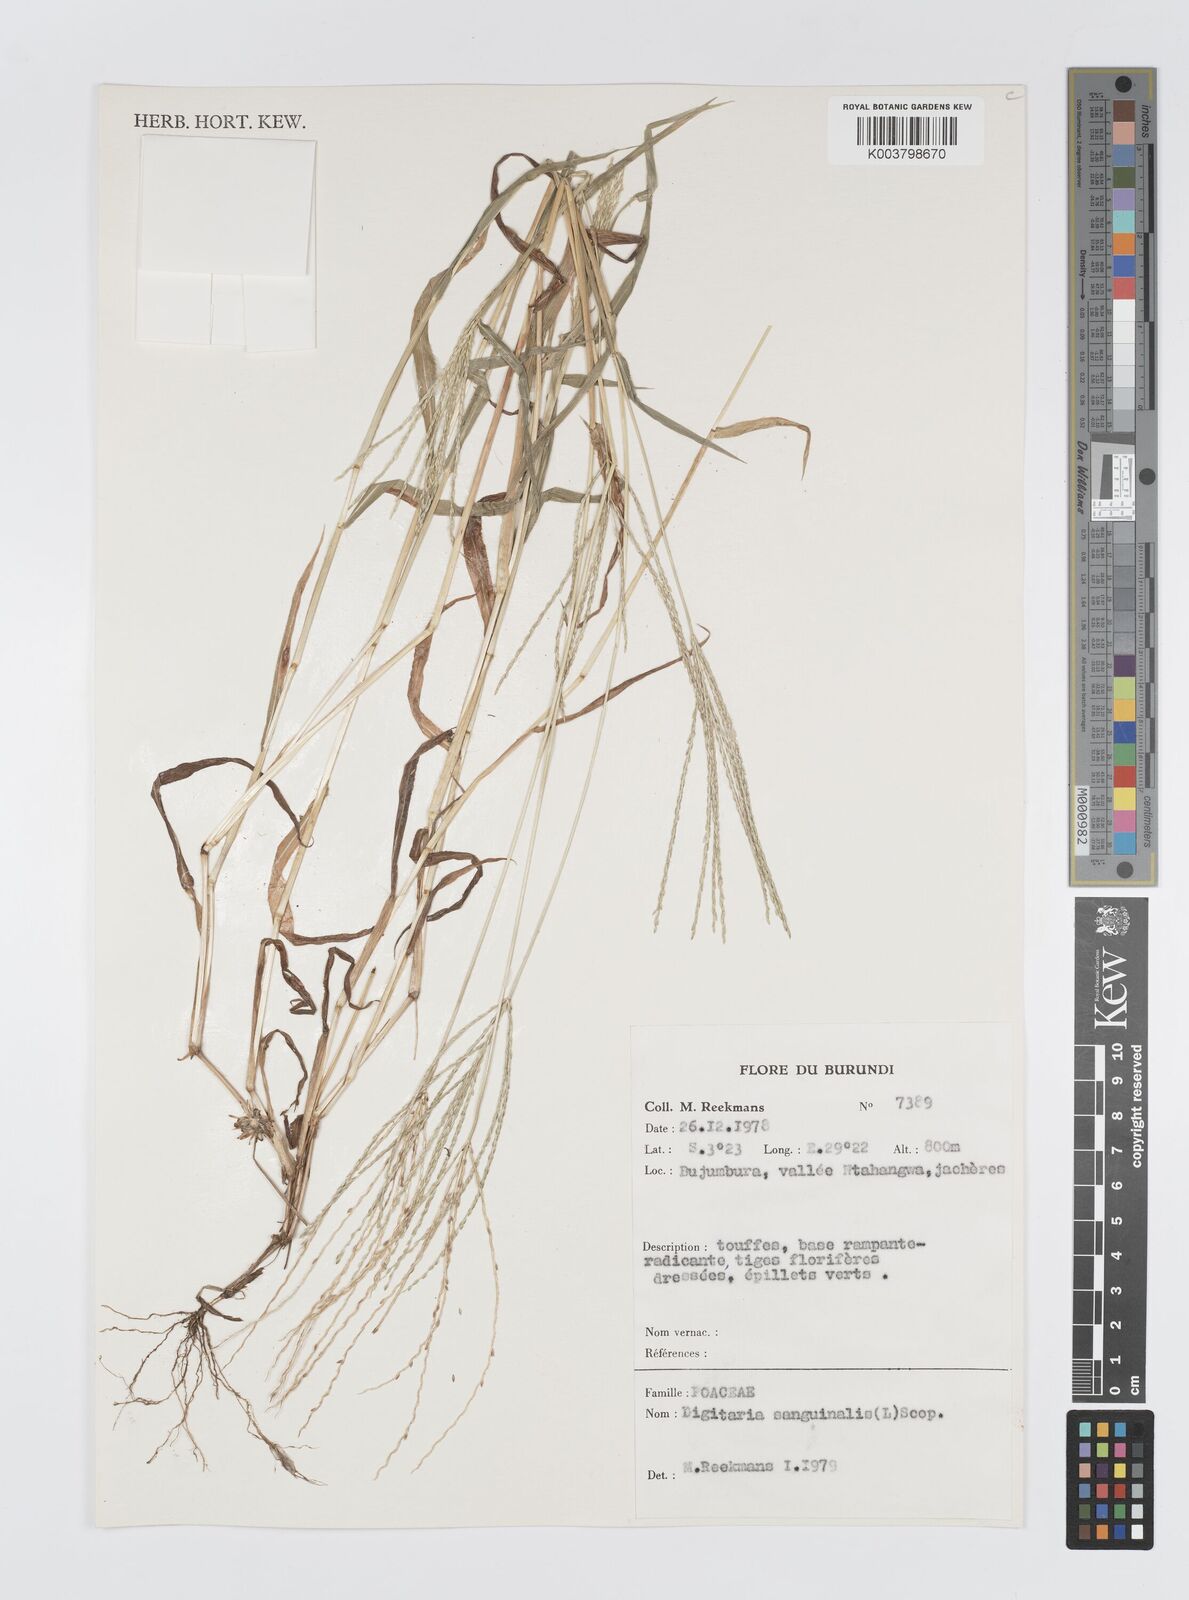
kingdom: Plantae
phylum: Tracheophyta
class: Liliopsida
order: Poales
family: Poaceae
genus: Digitaria
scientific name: Digitaria sanguinalis
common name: Hairy crabgrass
